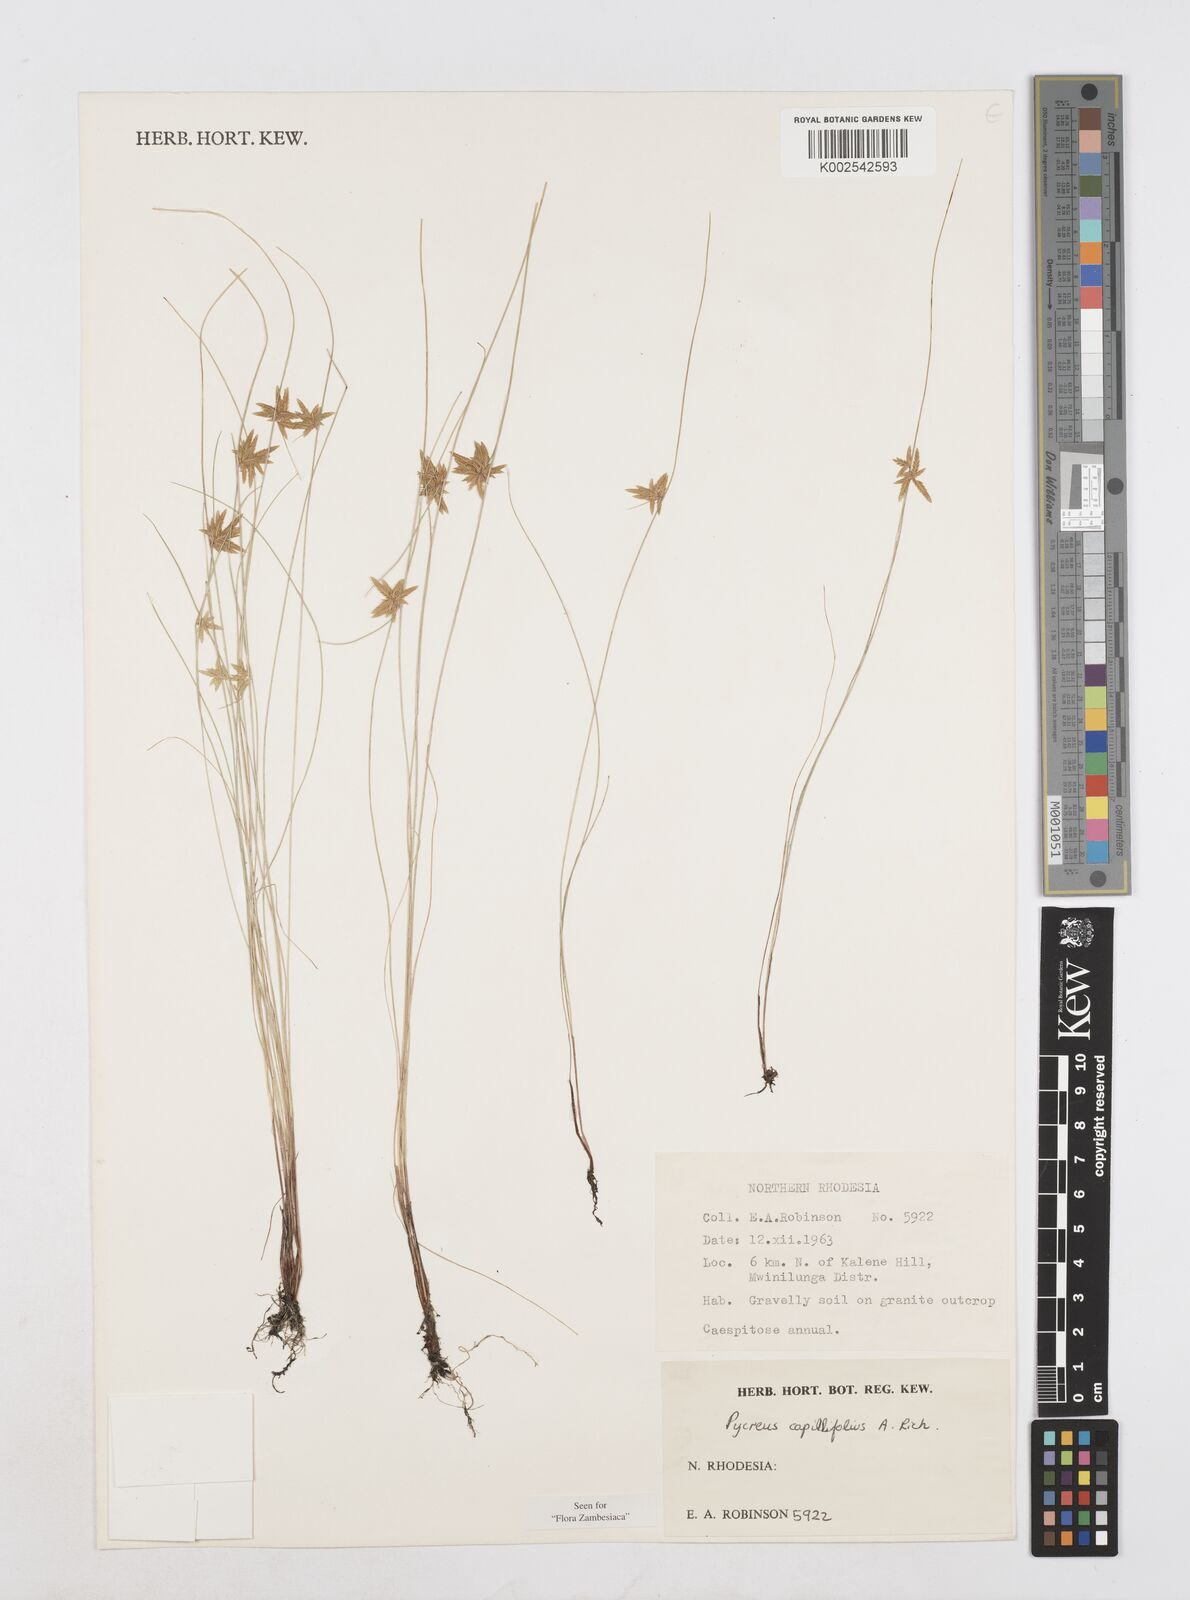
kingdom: Plantae
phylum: Tracheophyta
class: Liliopsida
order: Poales
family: Cyperaceae
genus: Cyperus
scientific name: Cyperus capillifolius
